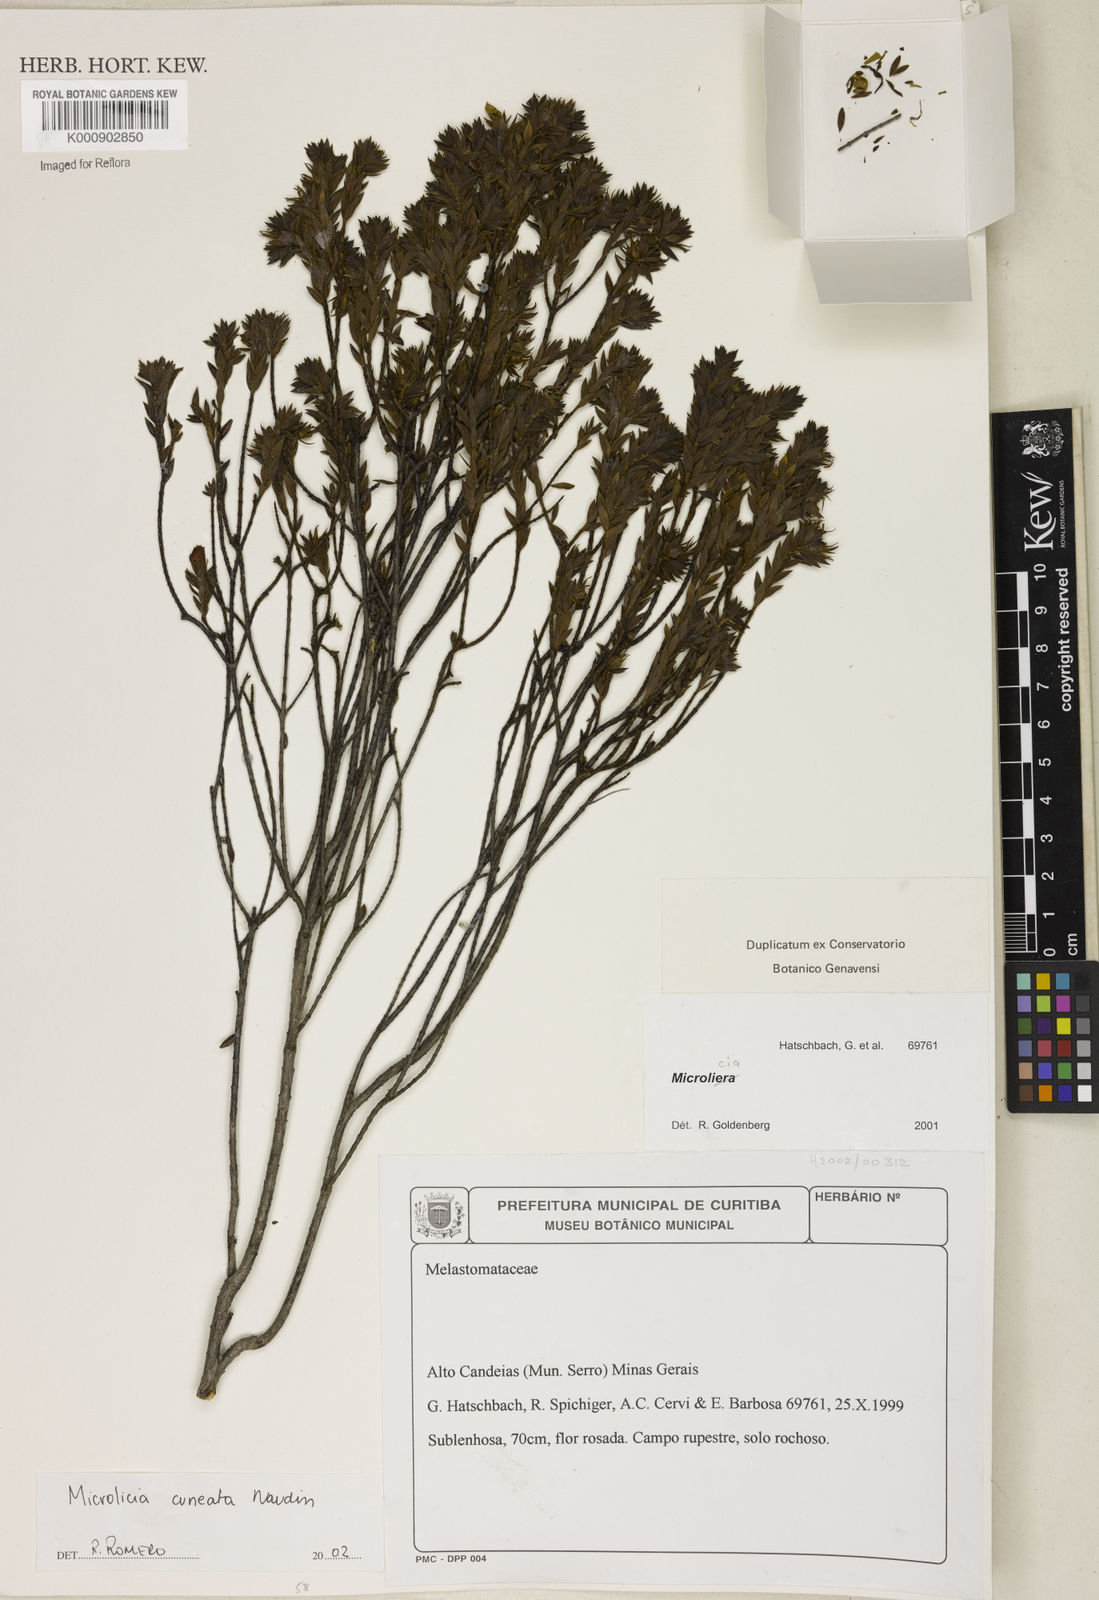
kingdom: Plantae
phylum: Tracheophyta
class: Magnoliopsida
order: Myrtales
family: Melastomataceae
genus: Microlicia
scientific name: Microlicia
